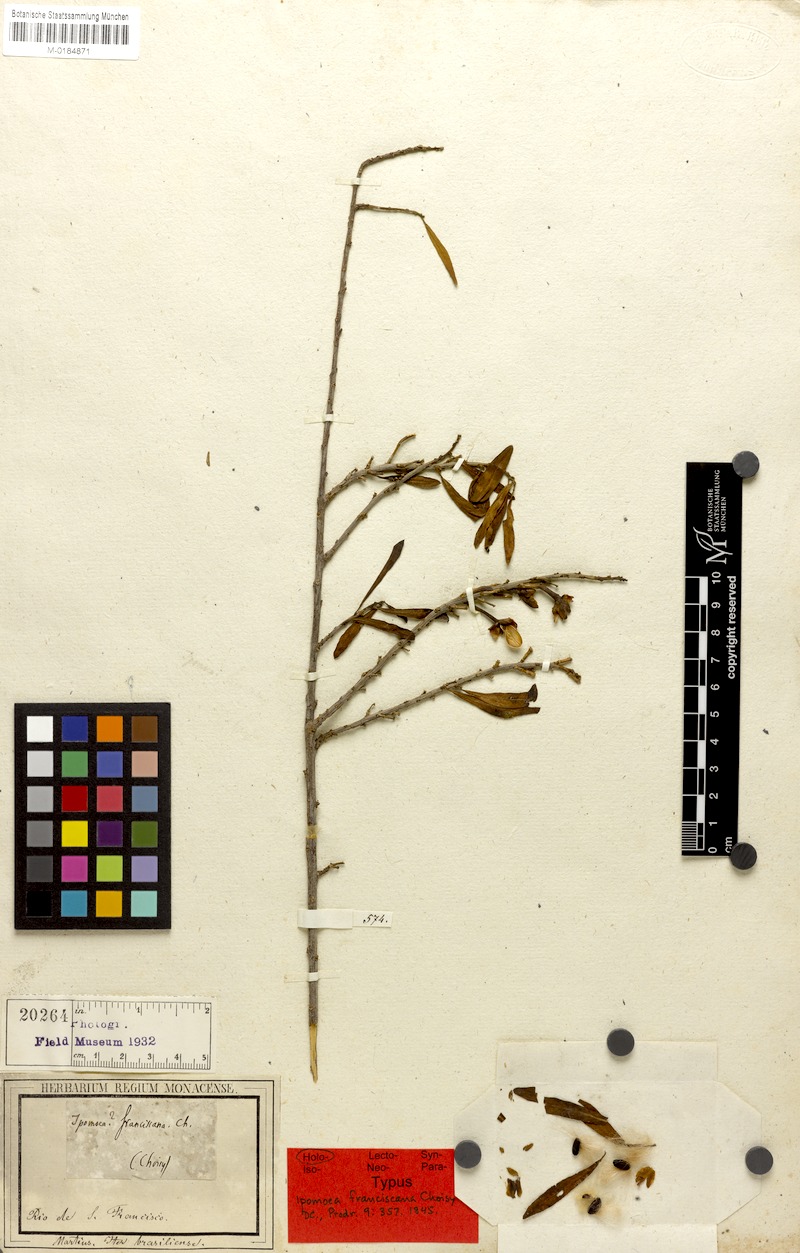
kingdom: Plantae
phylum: Tracheophyta
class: Magnoliopsida
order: Solanales
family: Convolvulaceae
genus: Ipomoea
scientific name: Ipomoea franciscana
